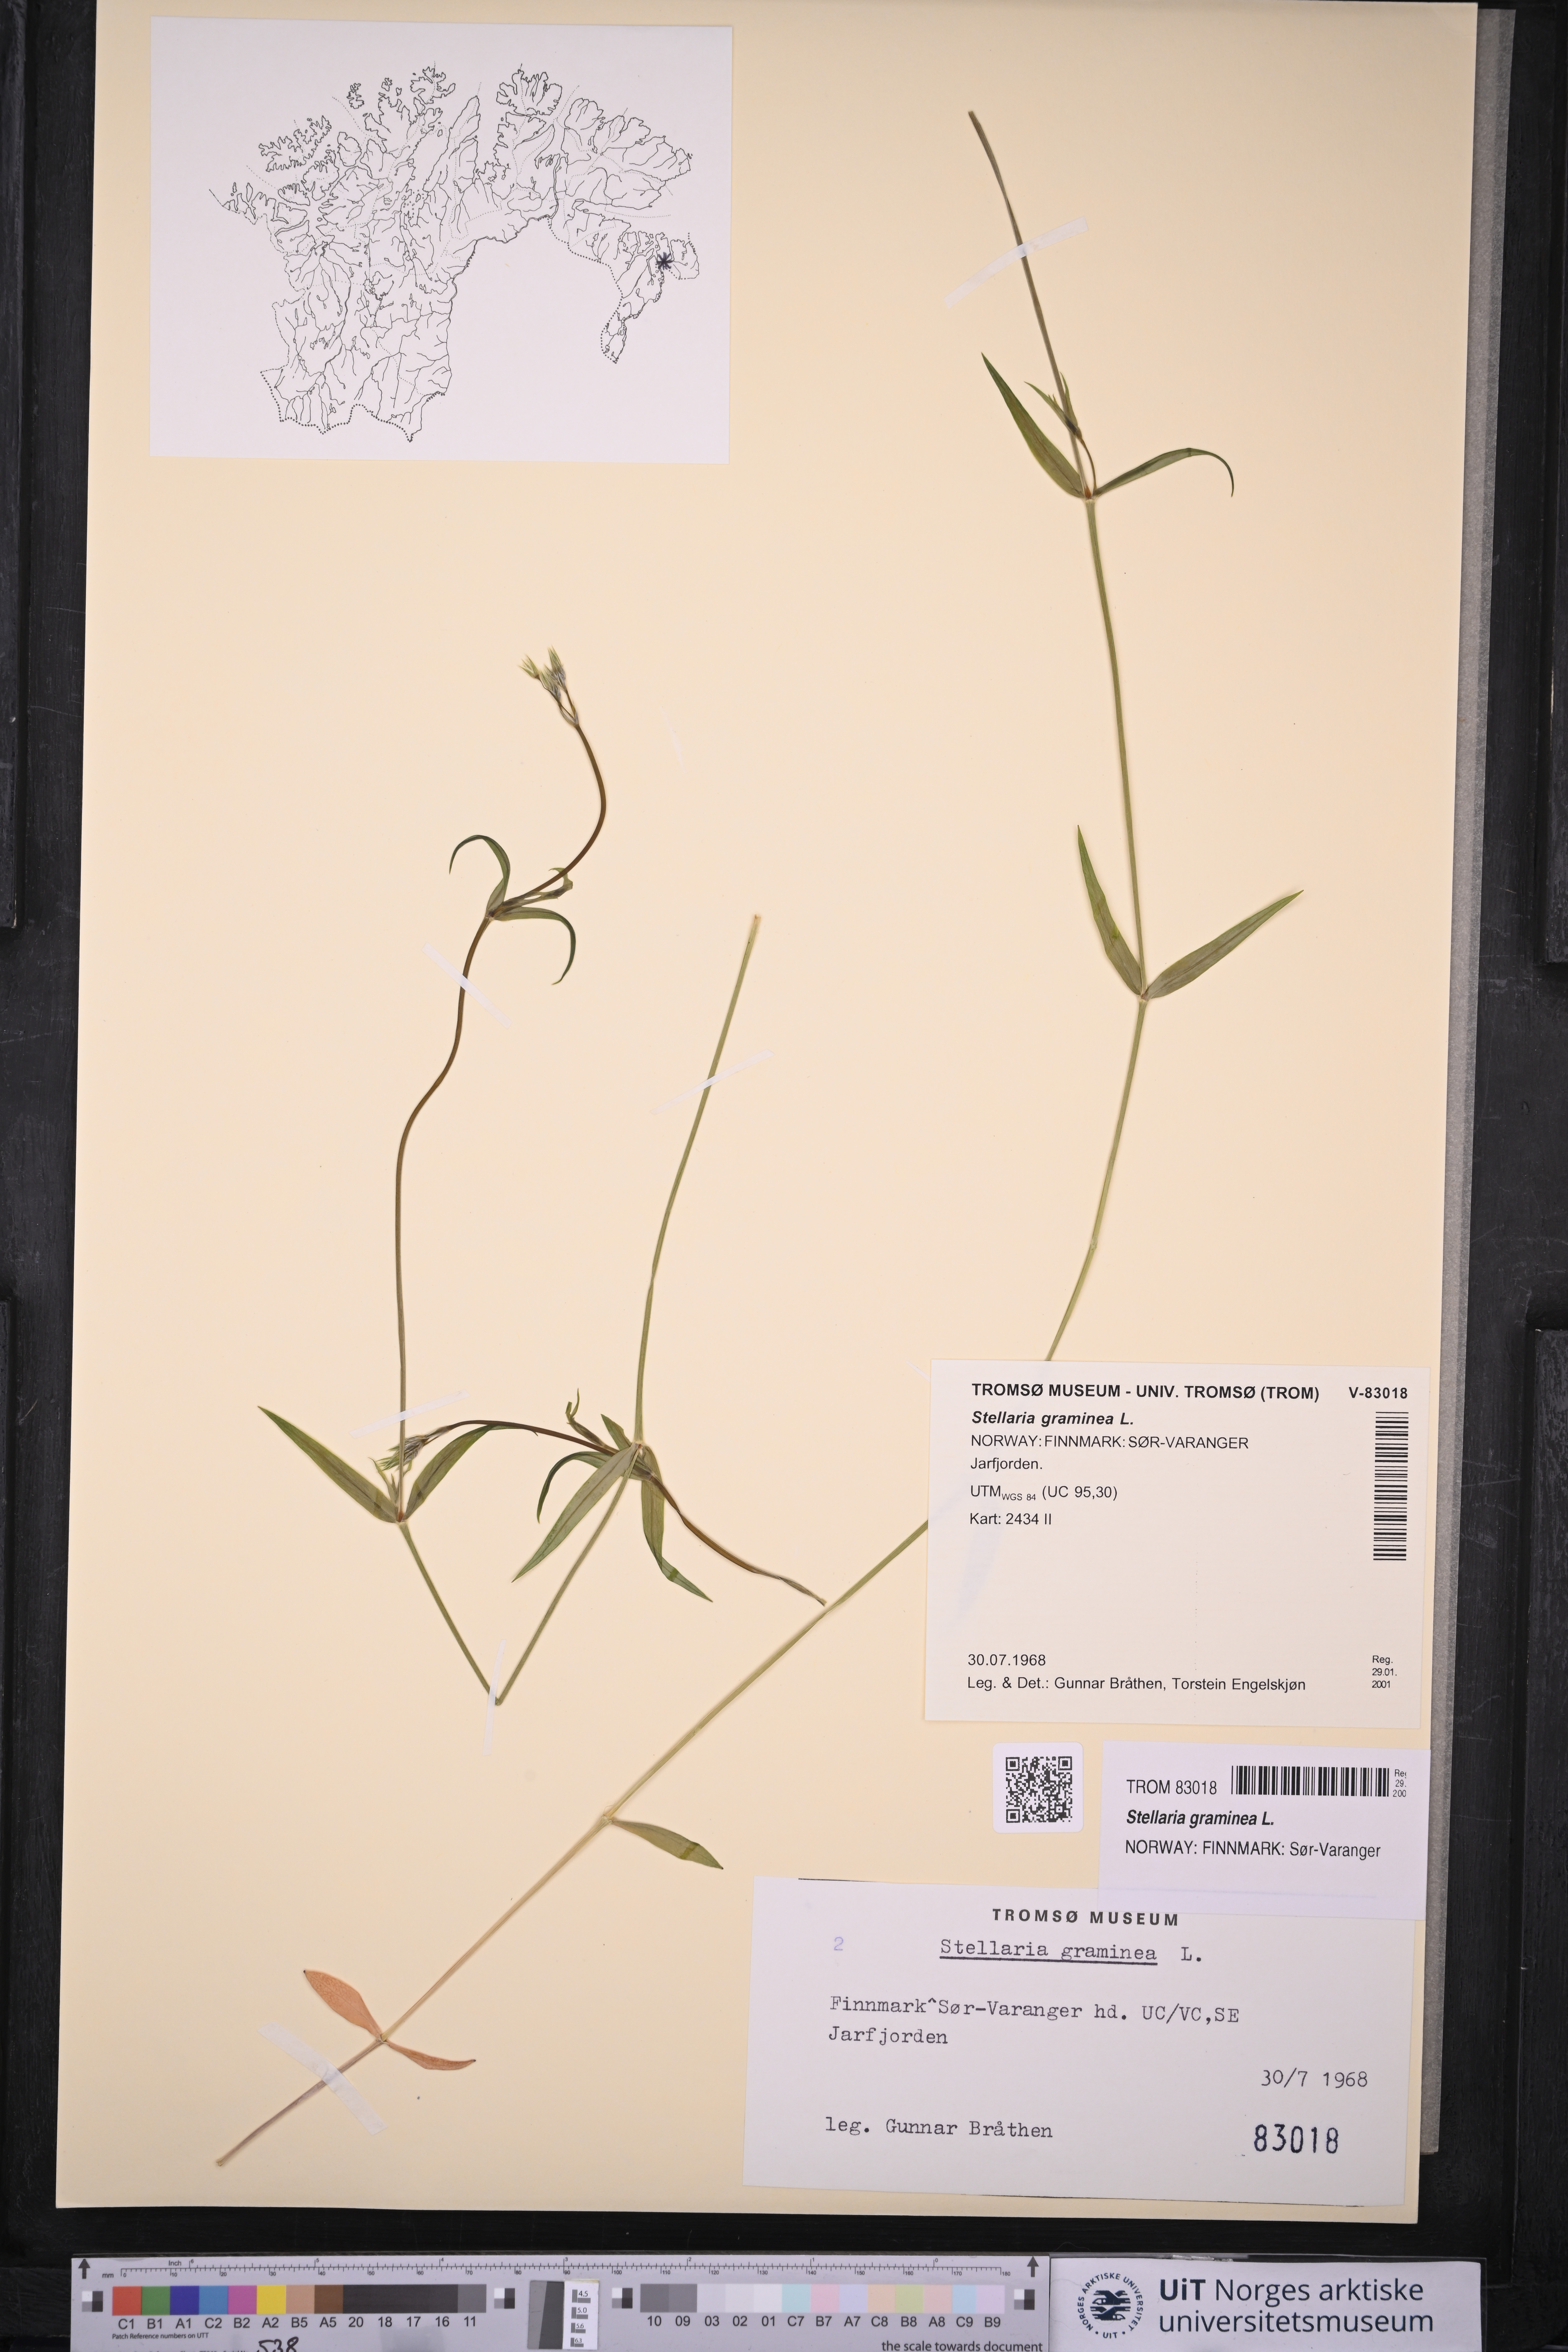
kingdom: Plantae
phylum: Tracheophyta
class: Magnoliopsida
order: Caryophyllales
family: Caryophyllaceae
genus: Stellaria
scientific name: Stellaria graminea
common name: Grass-like starwort
